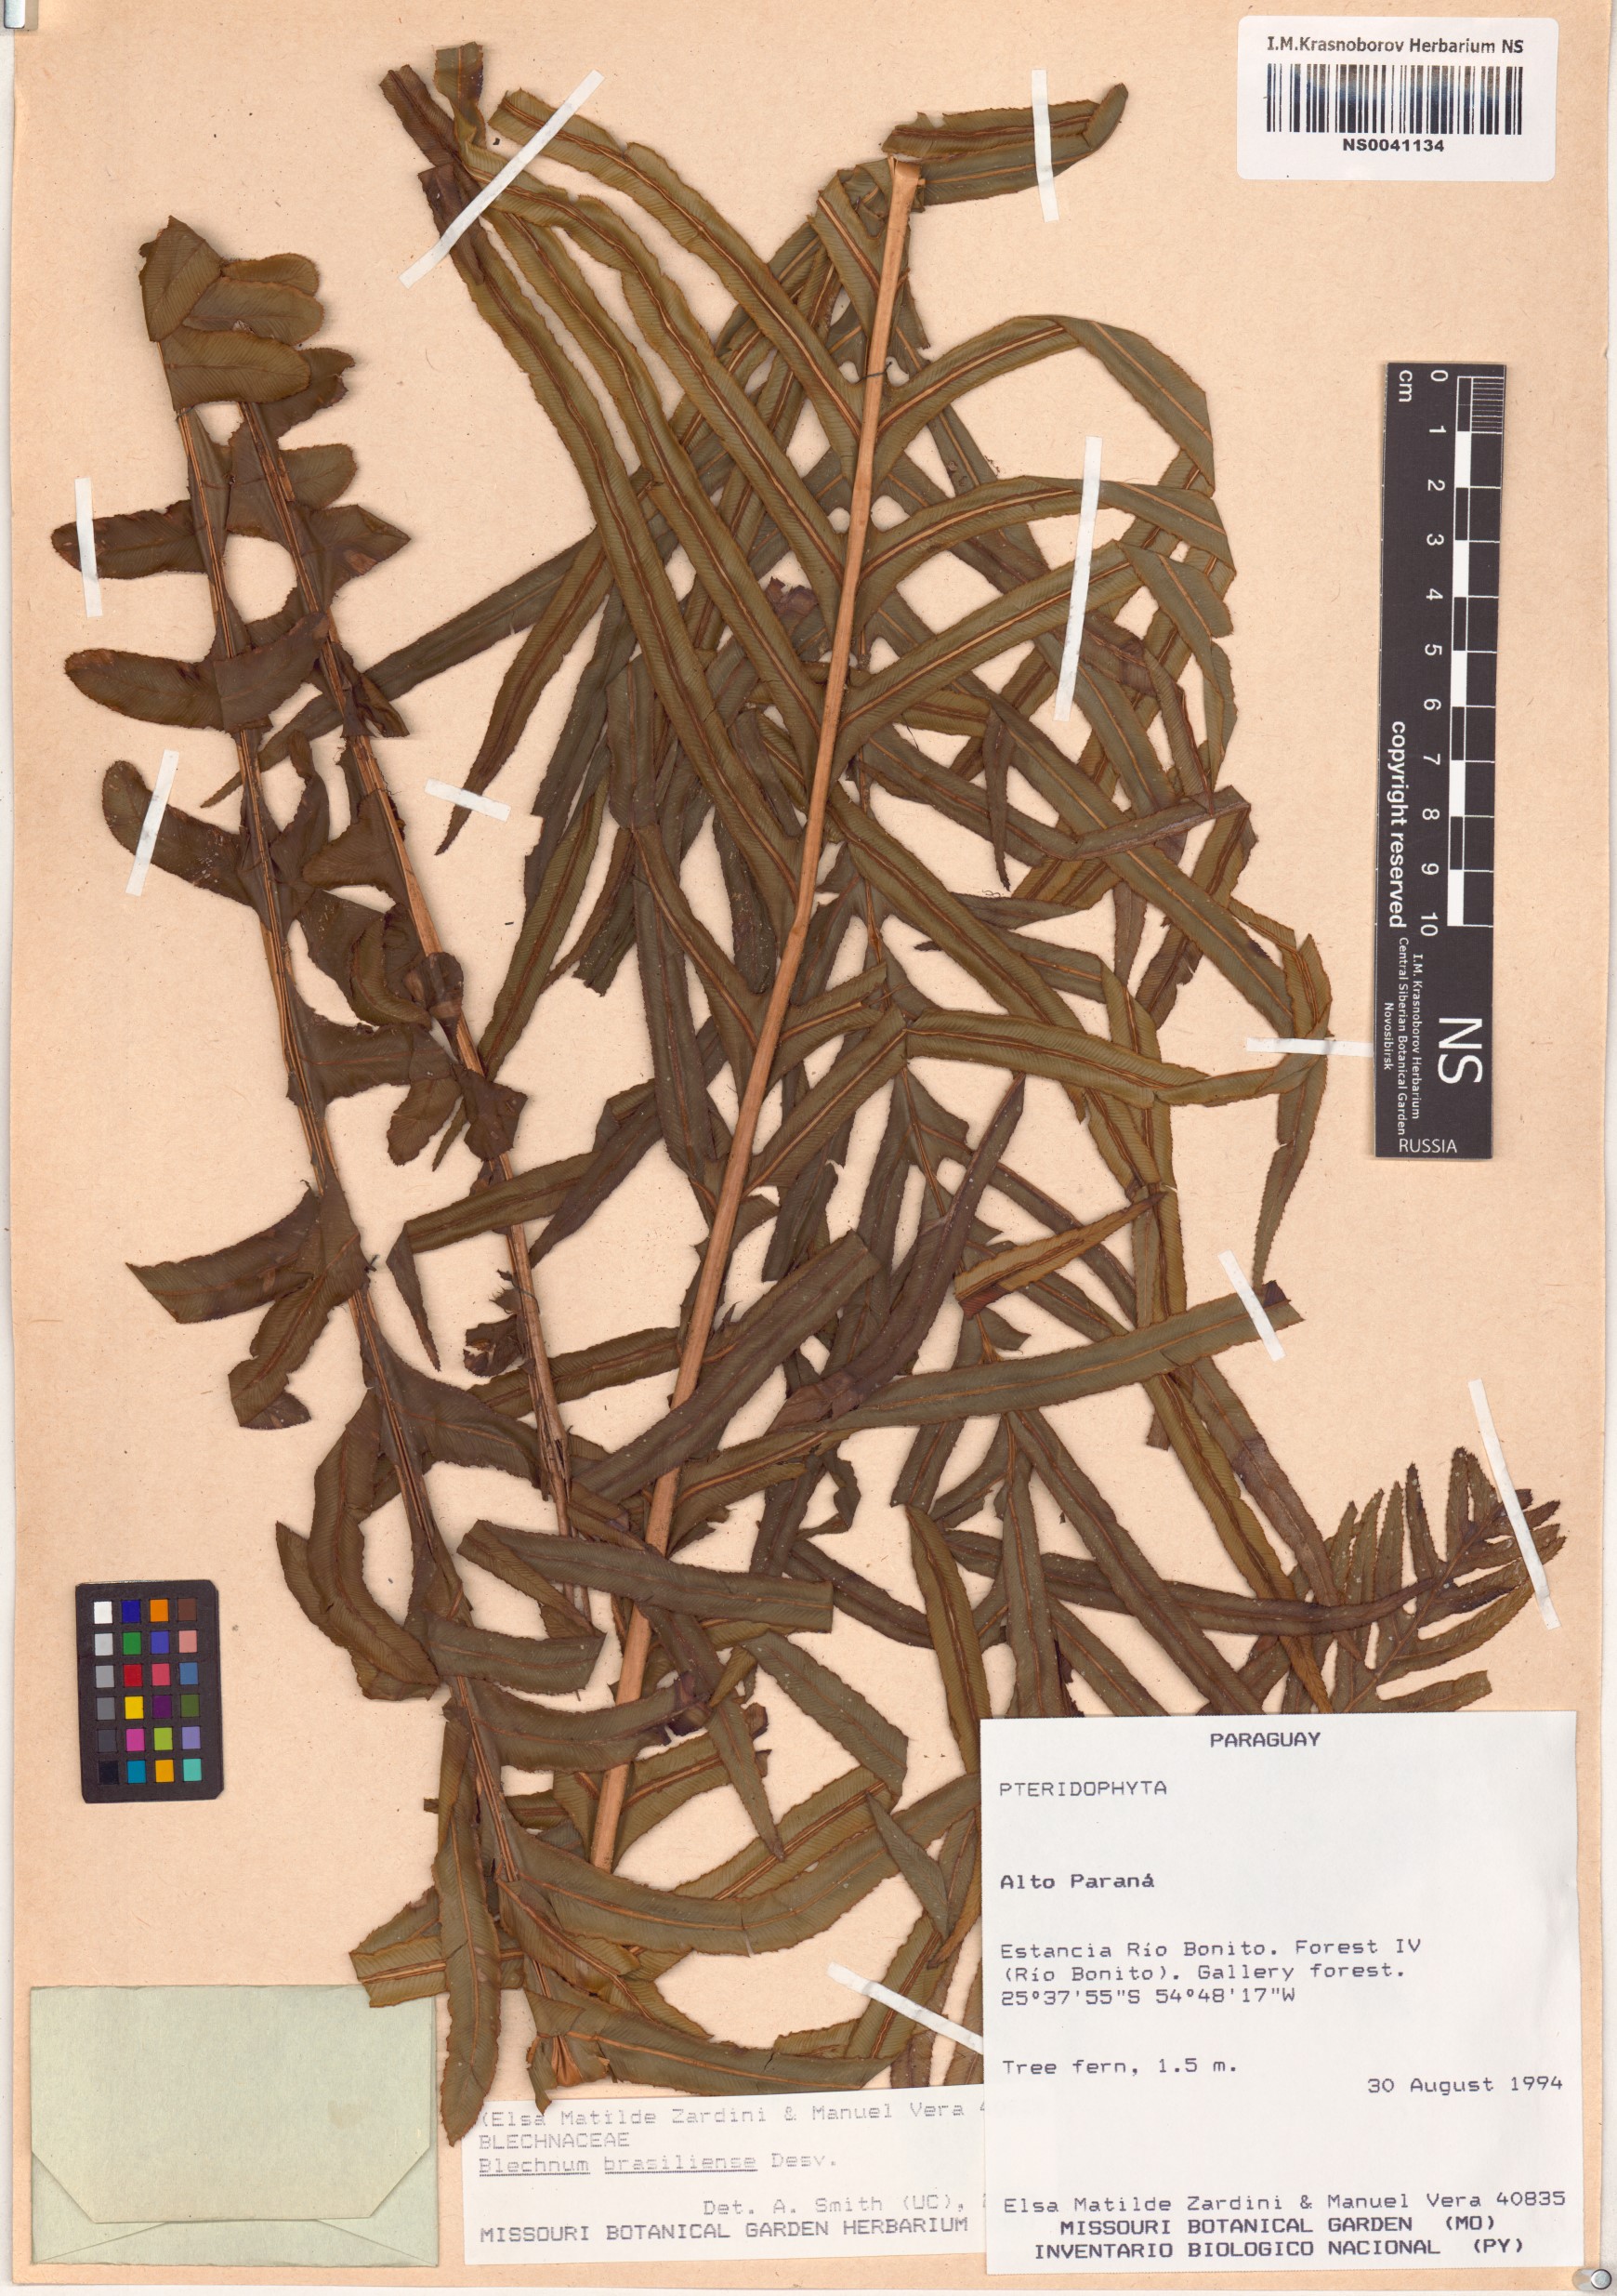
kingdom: Plantae
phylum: Tracheophyta
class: Polypodiopsida
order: Polypodiales
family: Blechnaceae
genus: Neoblechnum
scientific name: Neoblechnum brasiliense
